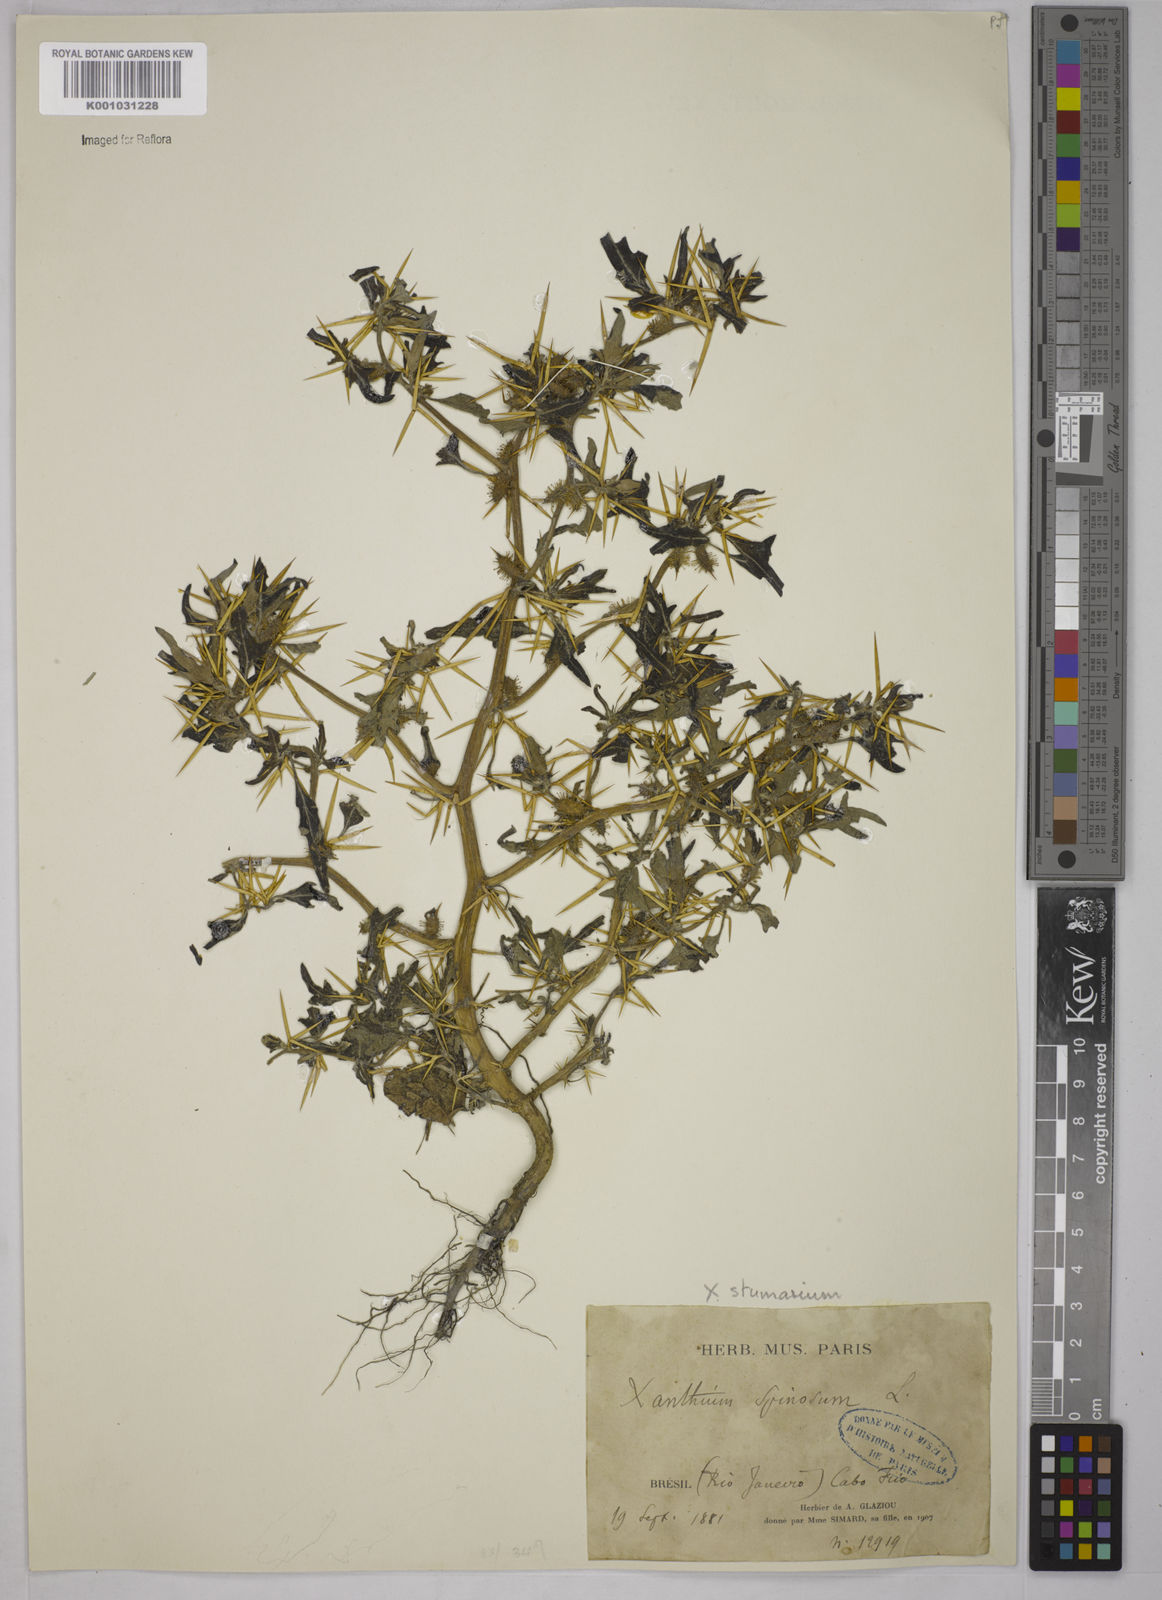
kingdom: Plantae
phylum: Tracheophyta
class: Magnoliopsida
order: Asterales
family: Asteraceae
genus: Xanthium
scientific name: Xanthium spinosum
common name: Spiny cocklebur
